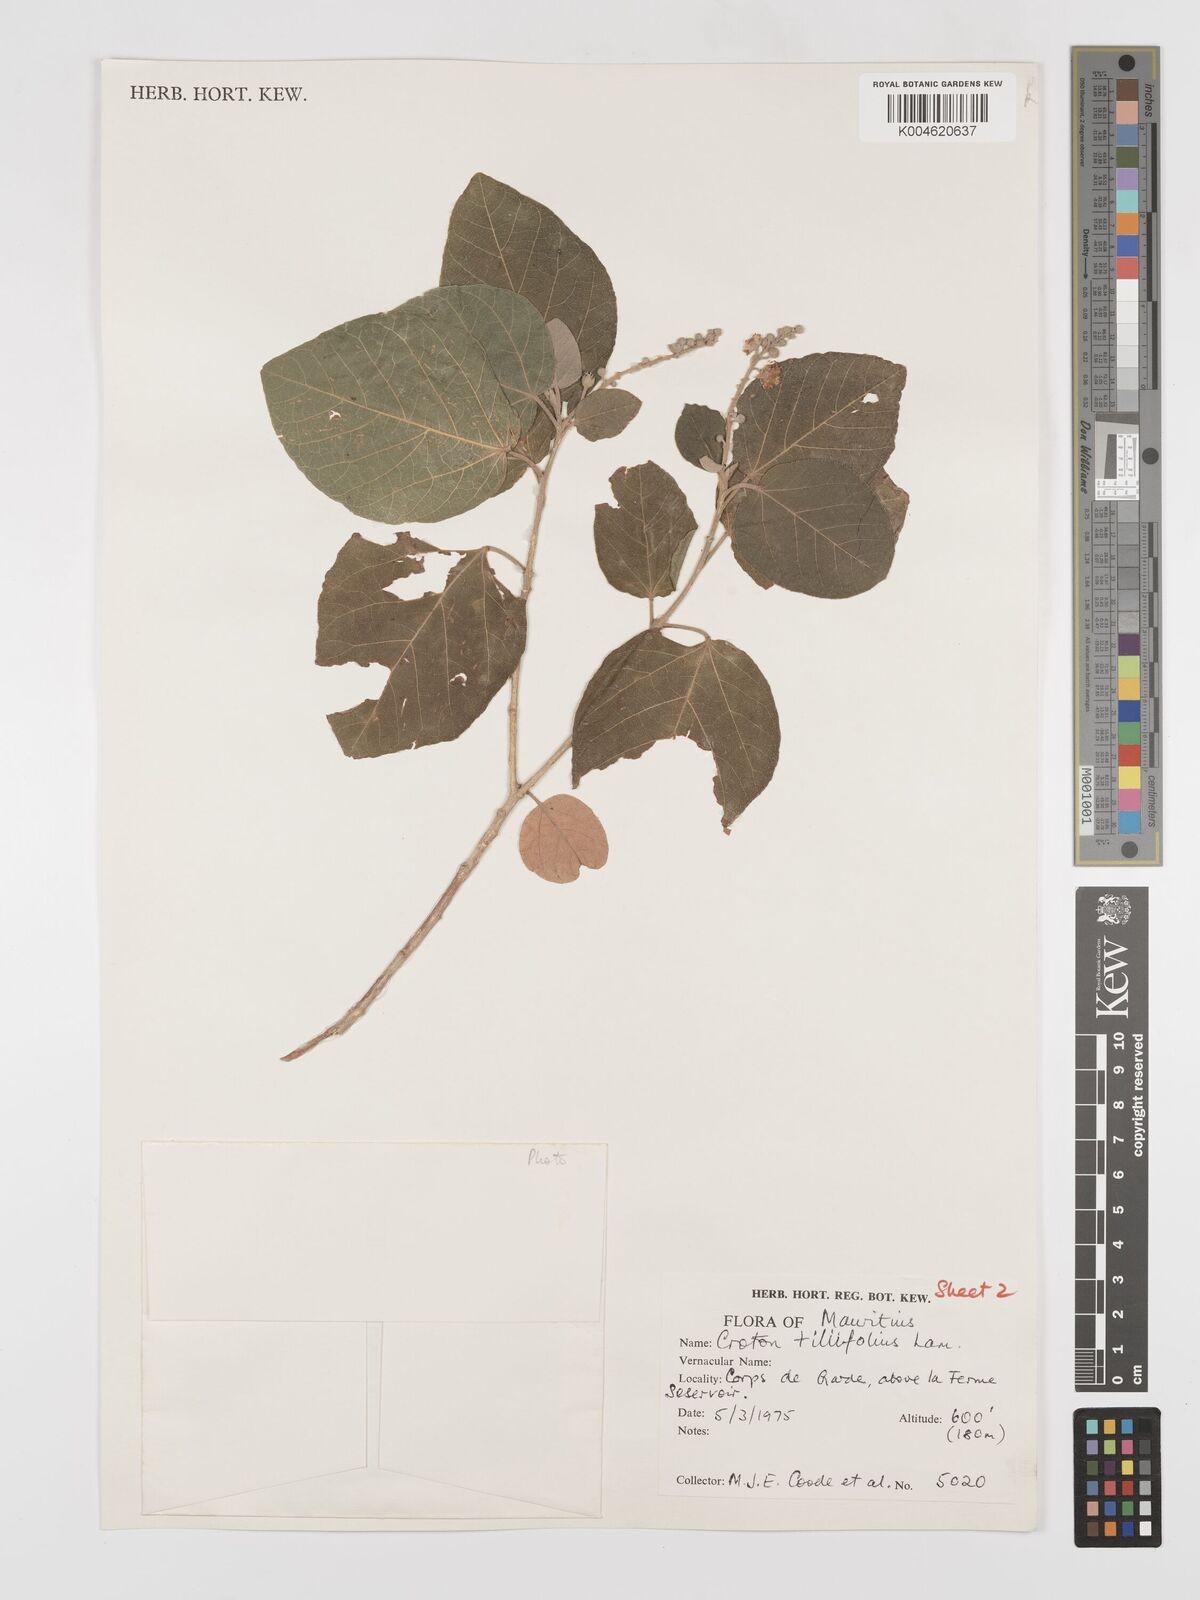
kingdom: Plantae
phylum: Tracheophyta
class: Magnoliopsida
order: Malpighiales
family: Euphorbiaceae
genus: Croton
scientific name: Croton
